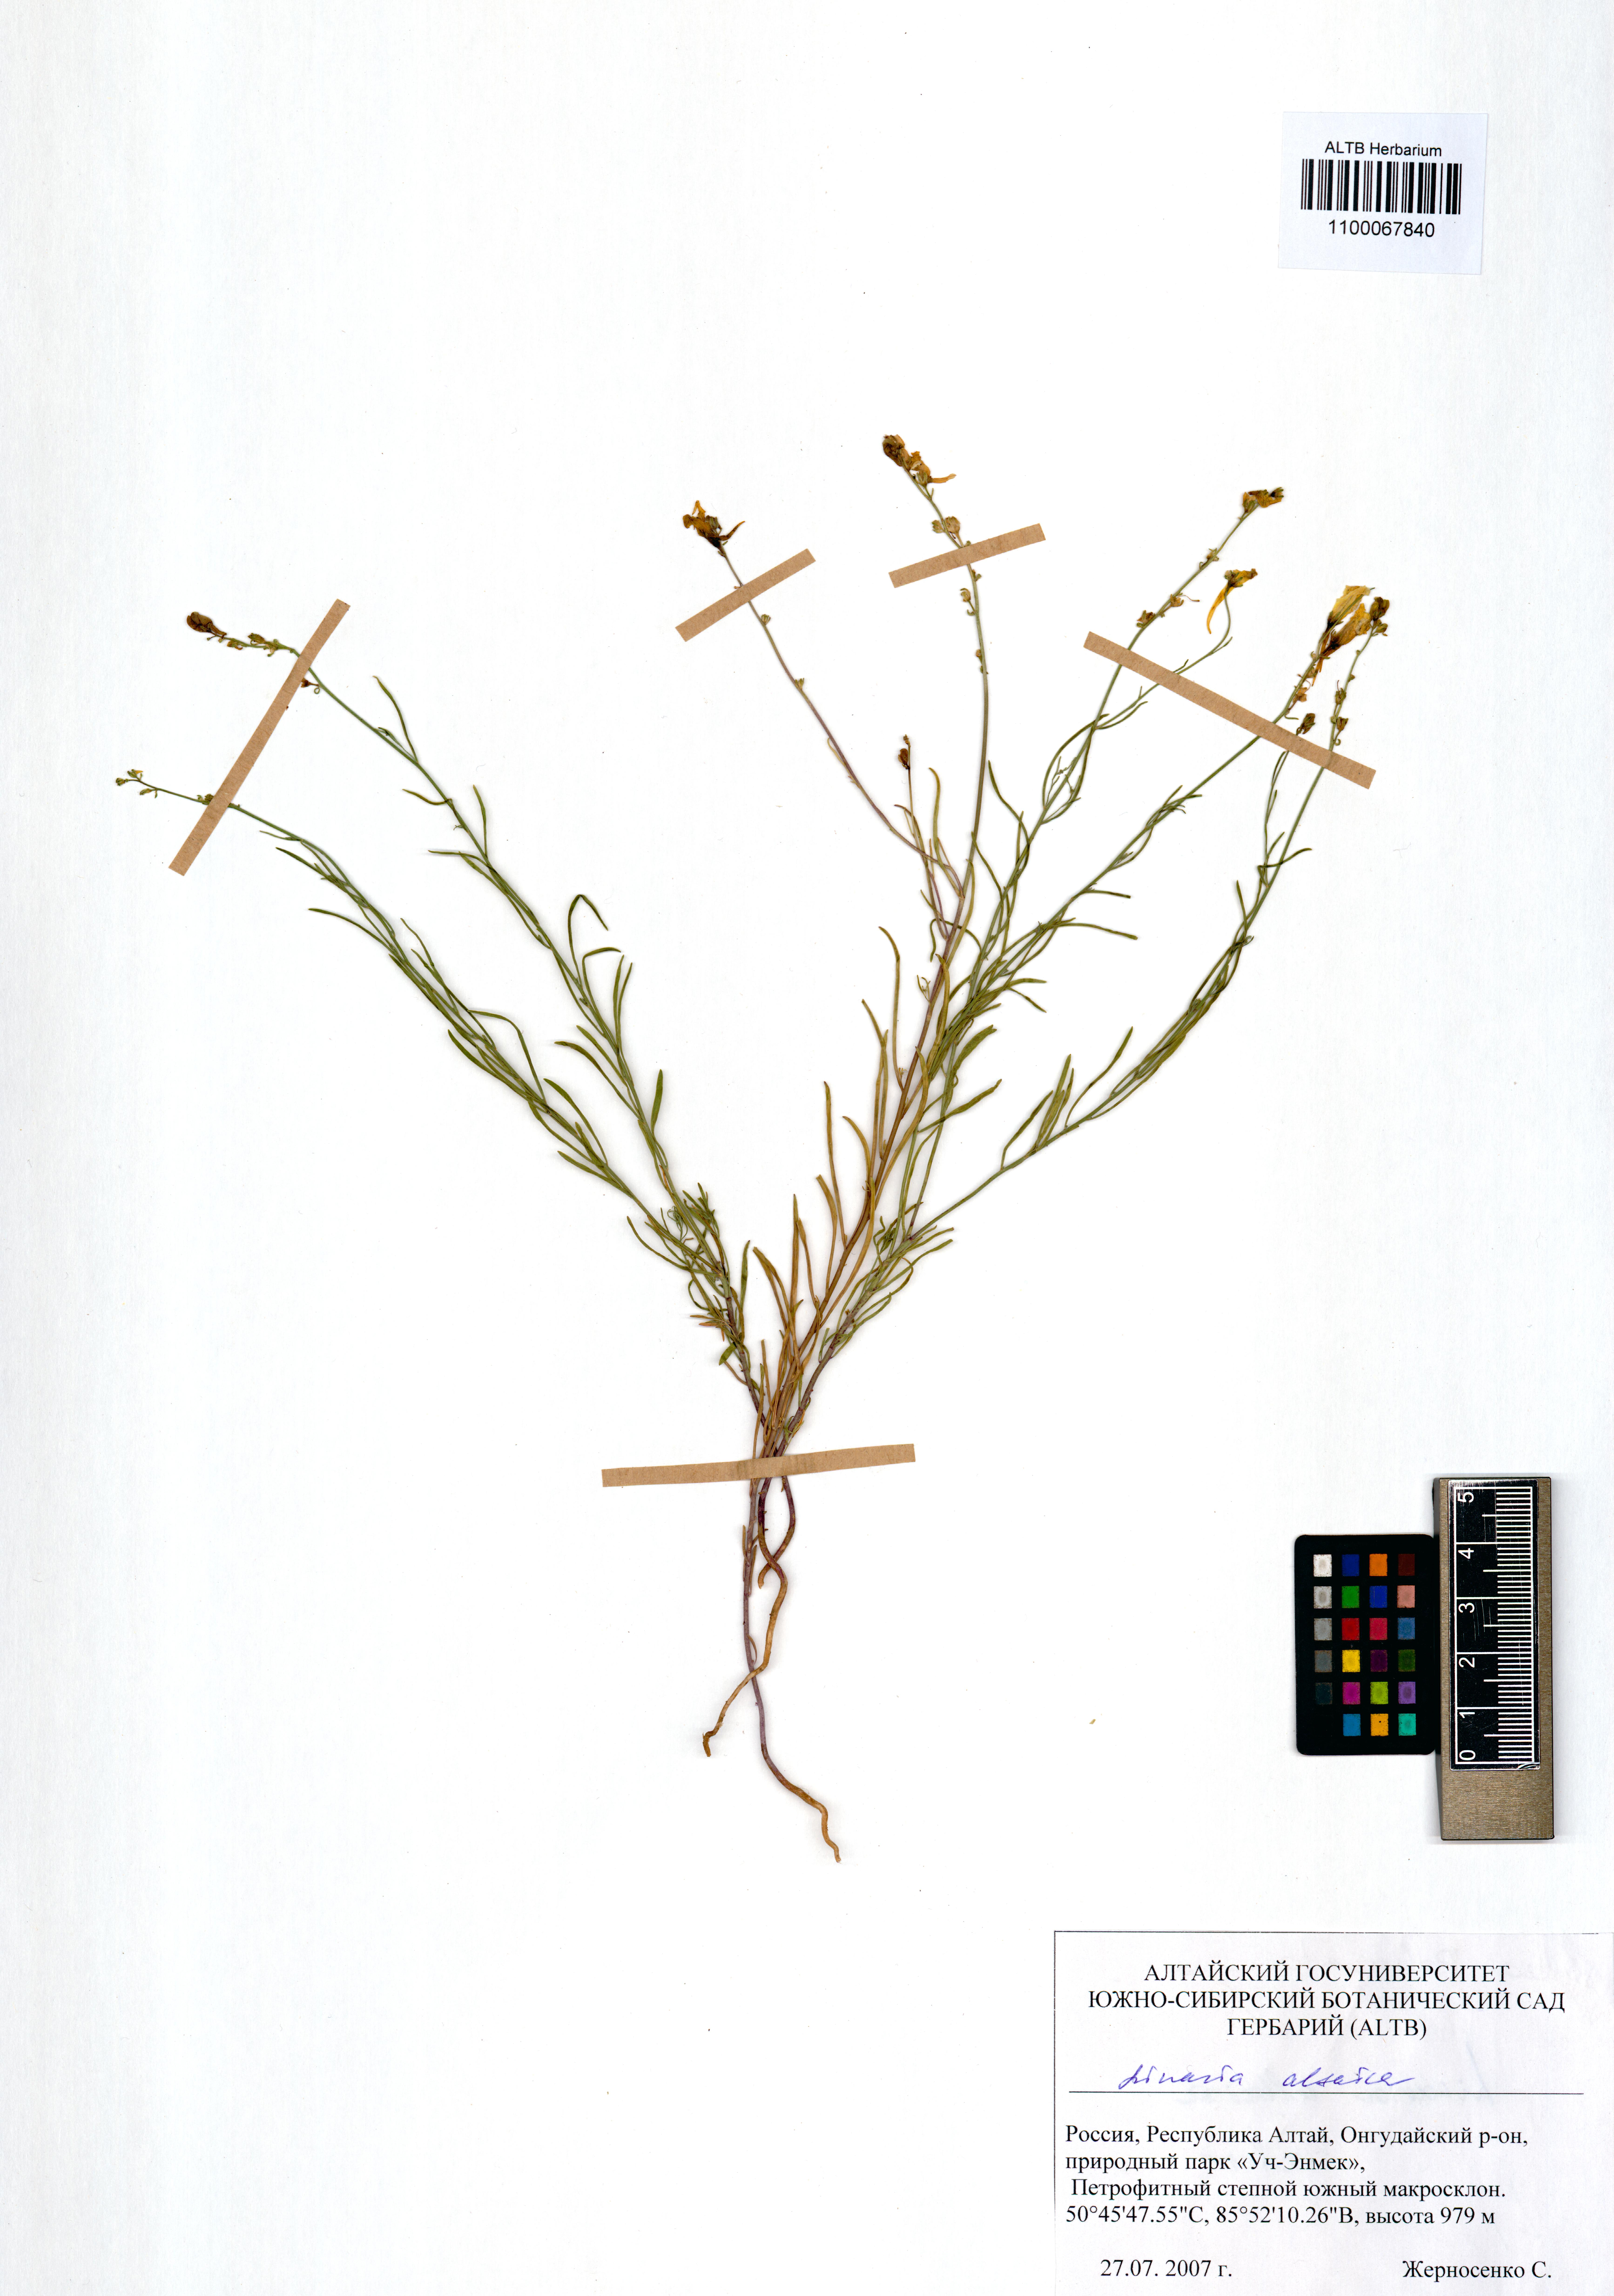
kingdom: Plantae
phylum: Tracheophyta
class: Magnoliopsida
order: Lamiales
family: Plantaginaceae
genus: Linaria
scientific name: Linaria altaica
